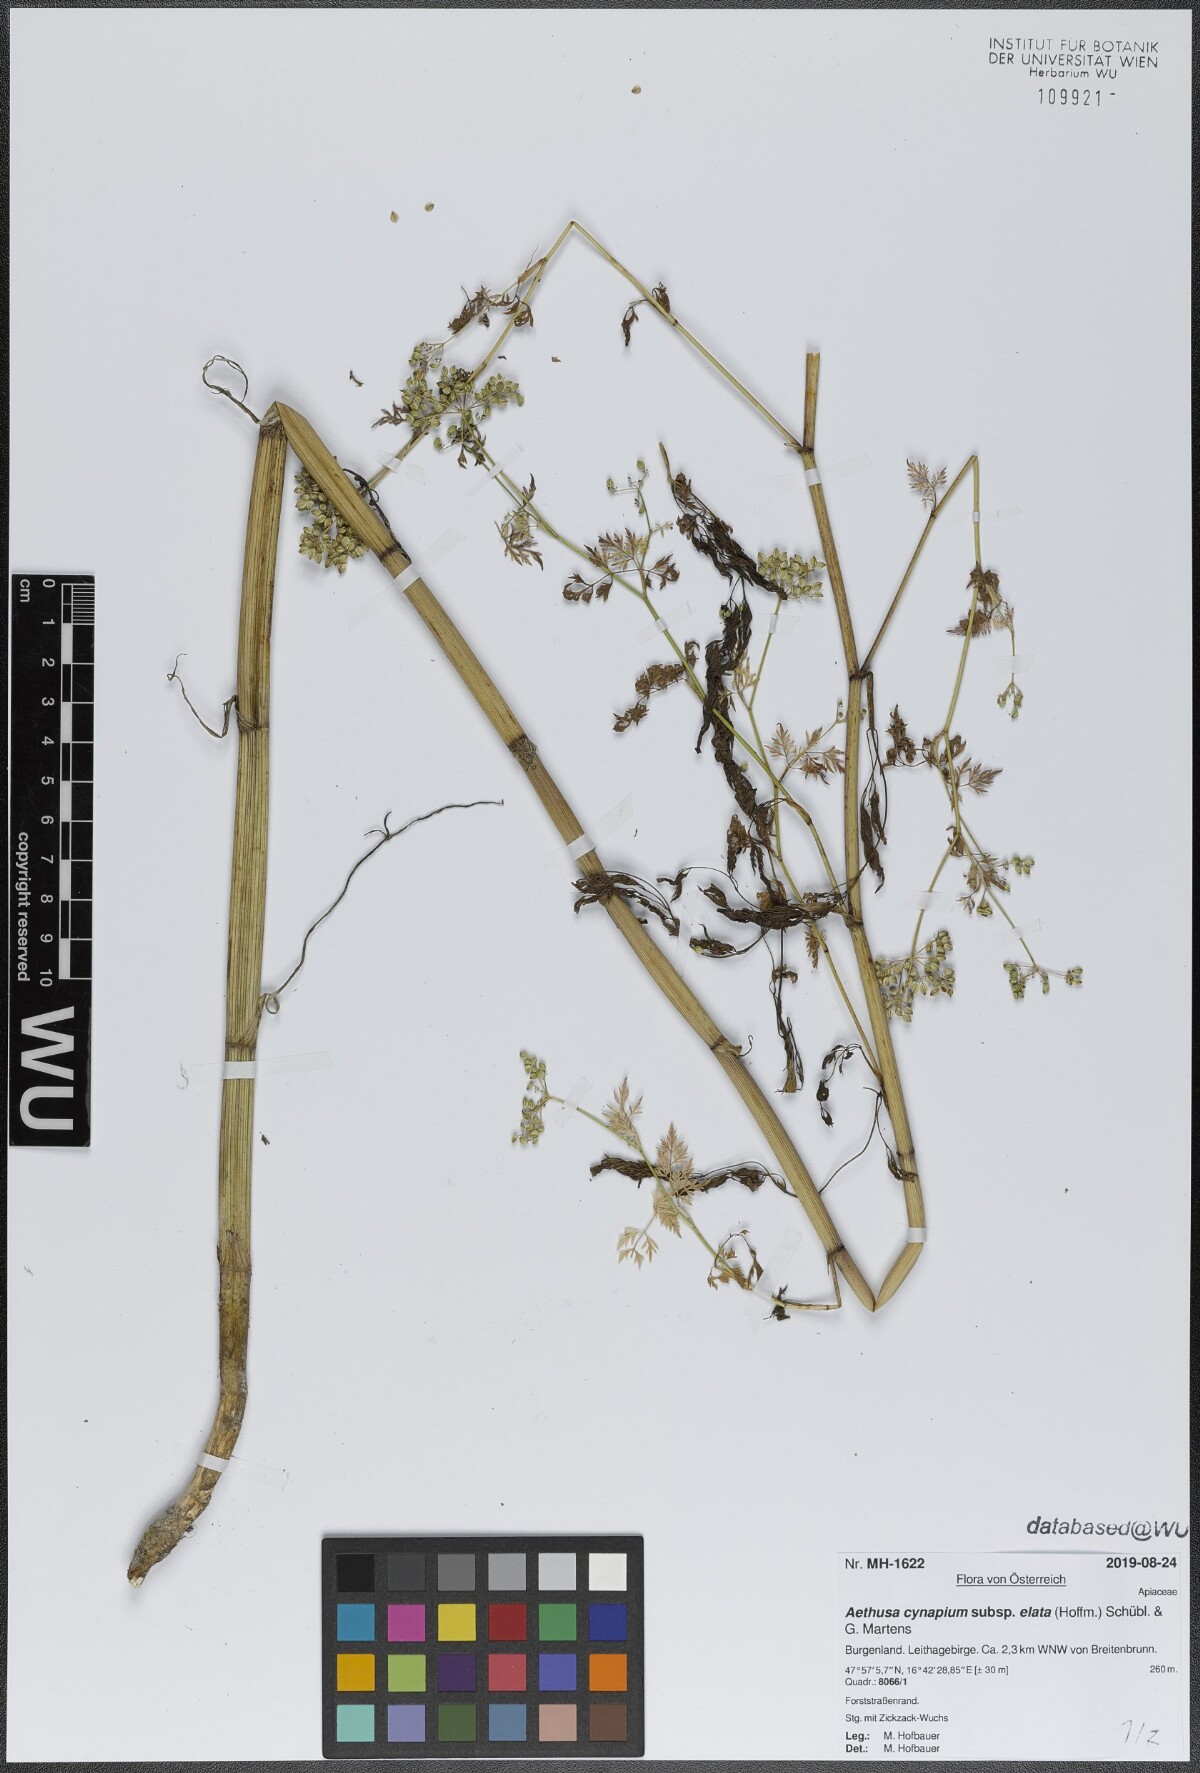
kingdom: Plantae
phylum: Tracheophyta
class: Magnoliopsida
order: Apiales
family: Apiaceae
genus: Aethusa
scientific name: Aethusa cynapium
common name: Fool's parsley
